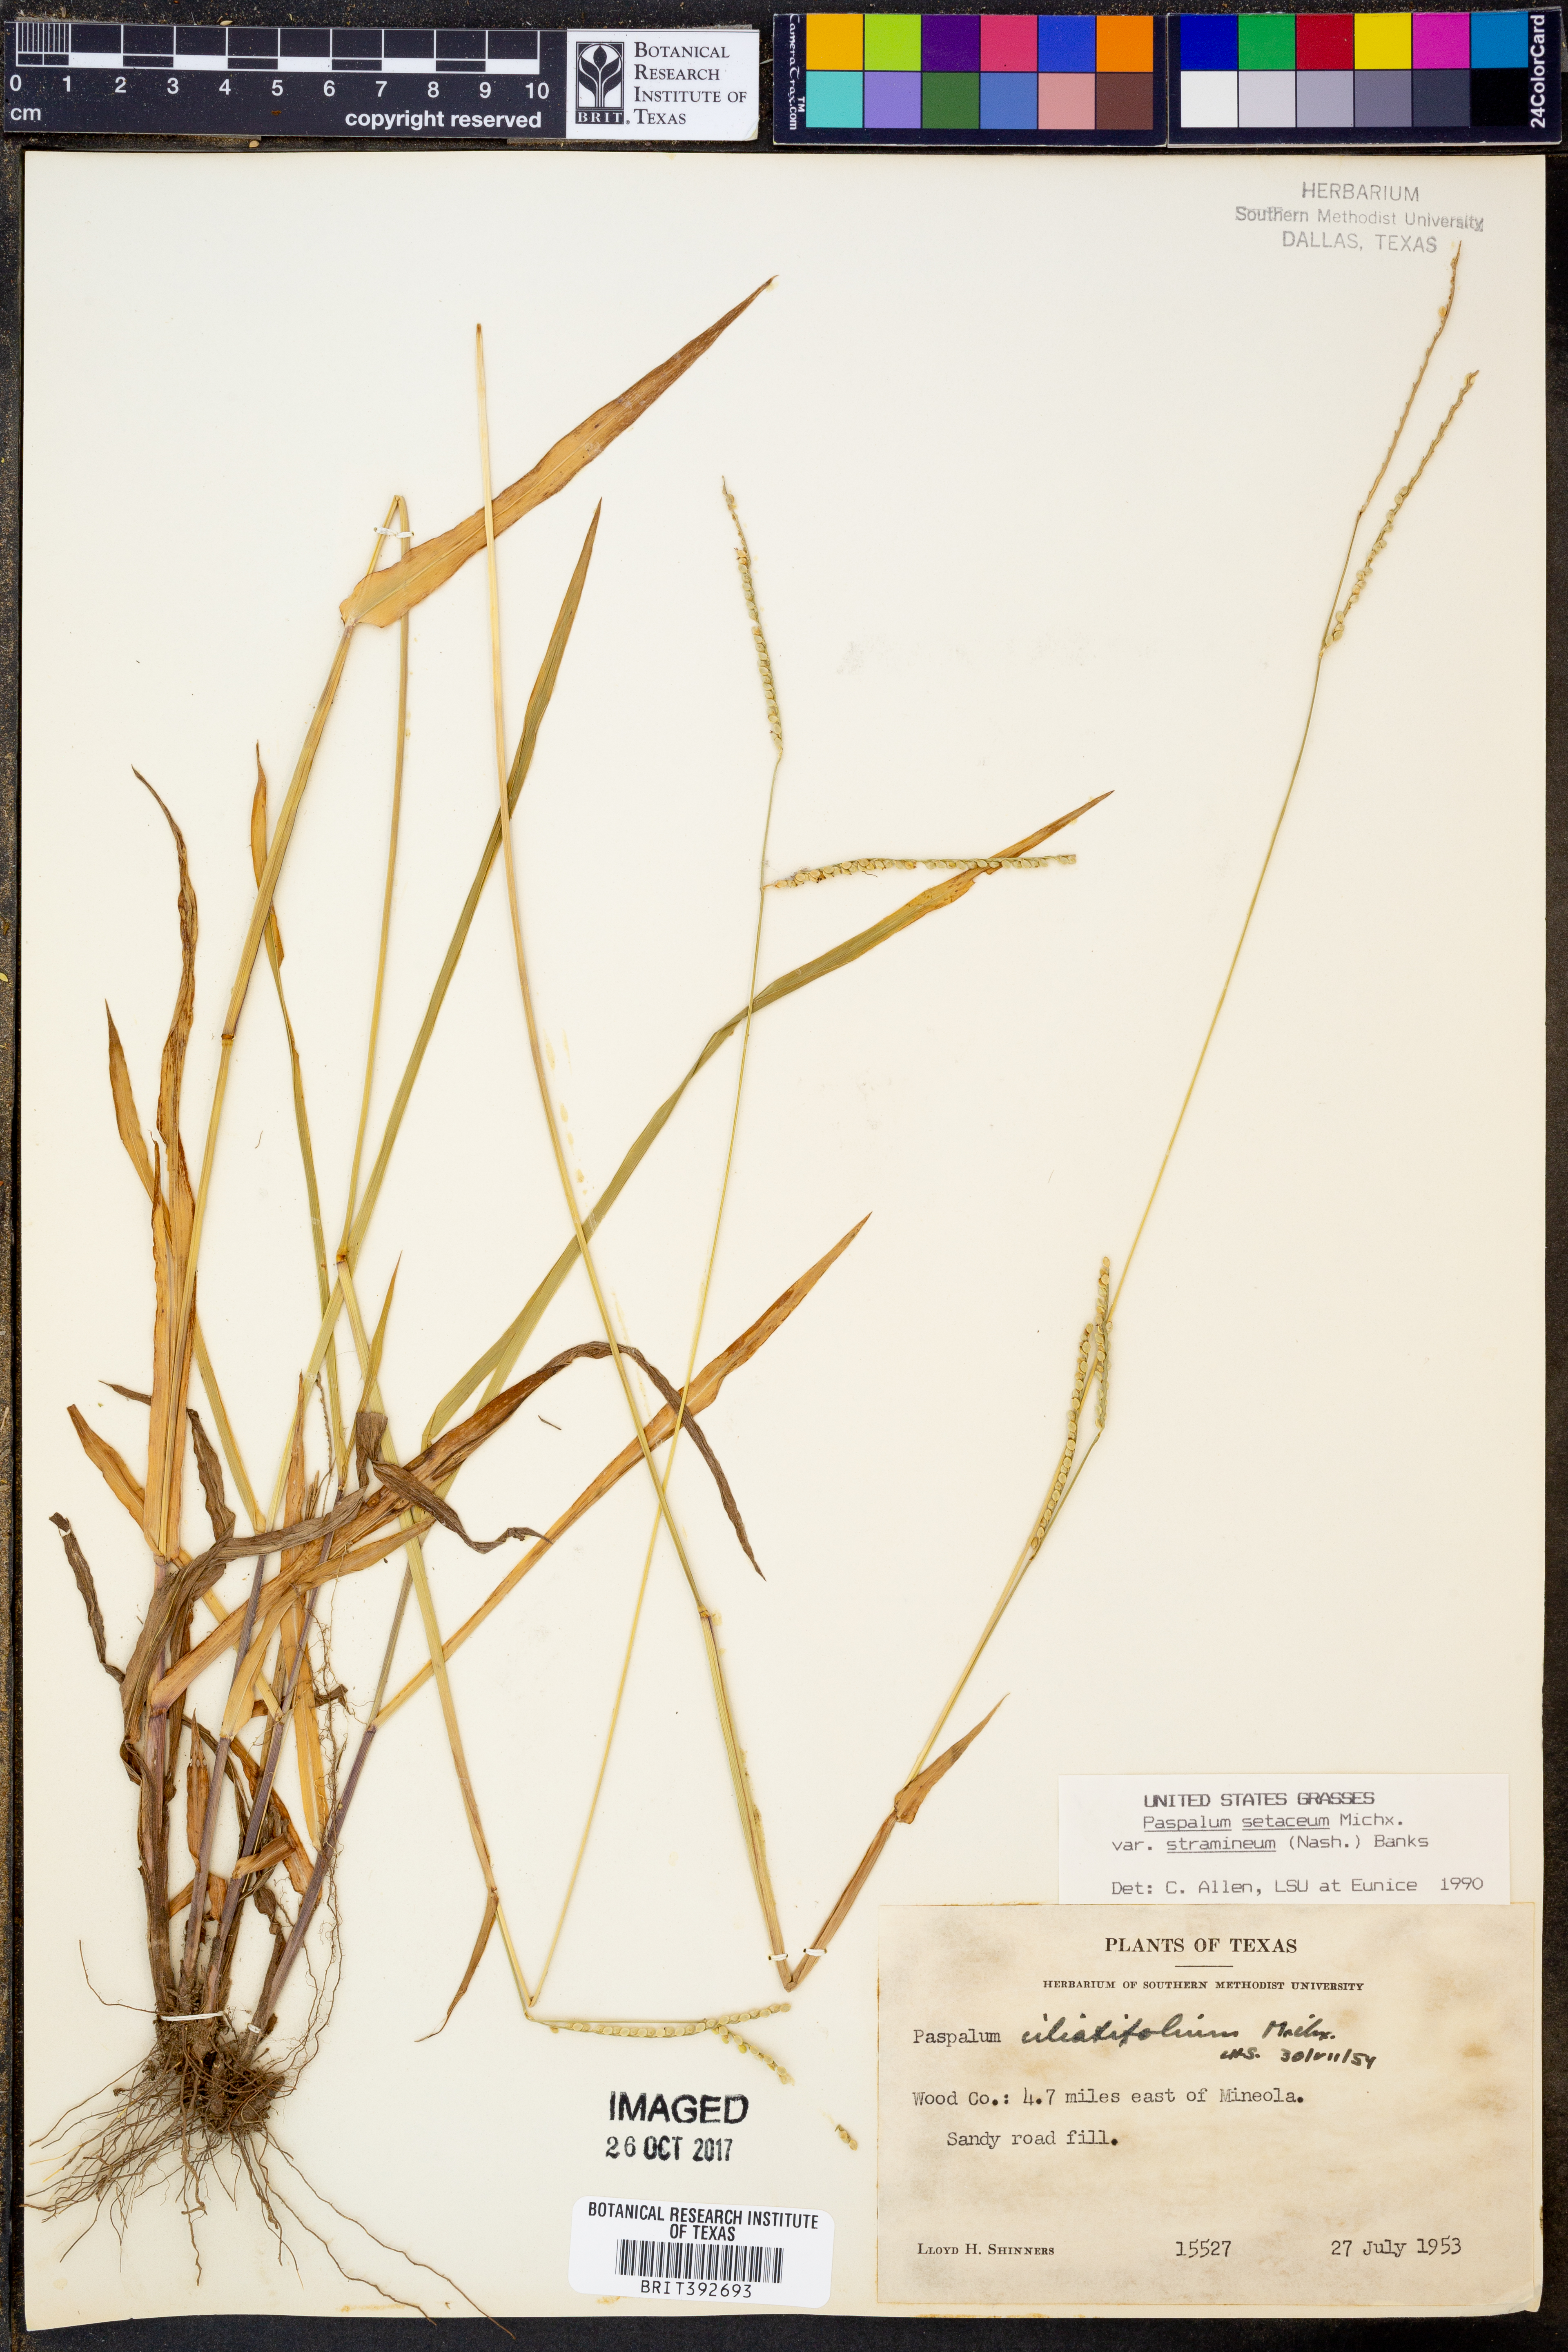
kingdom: Plantae
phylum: Tracheophyta
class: Liliopsida
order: Poales
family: Poaceae
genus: Paspalum
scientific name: Paspalum setaceum
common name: Slender paspalum
